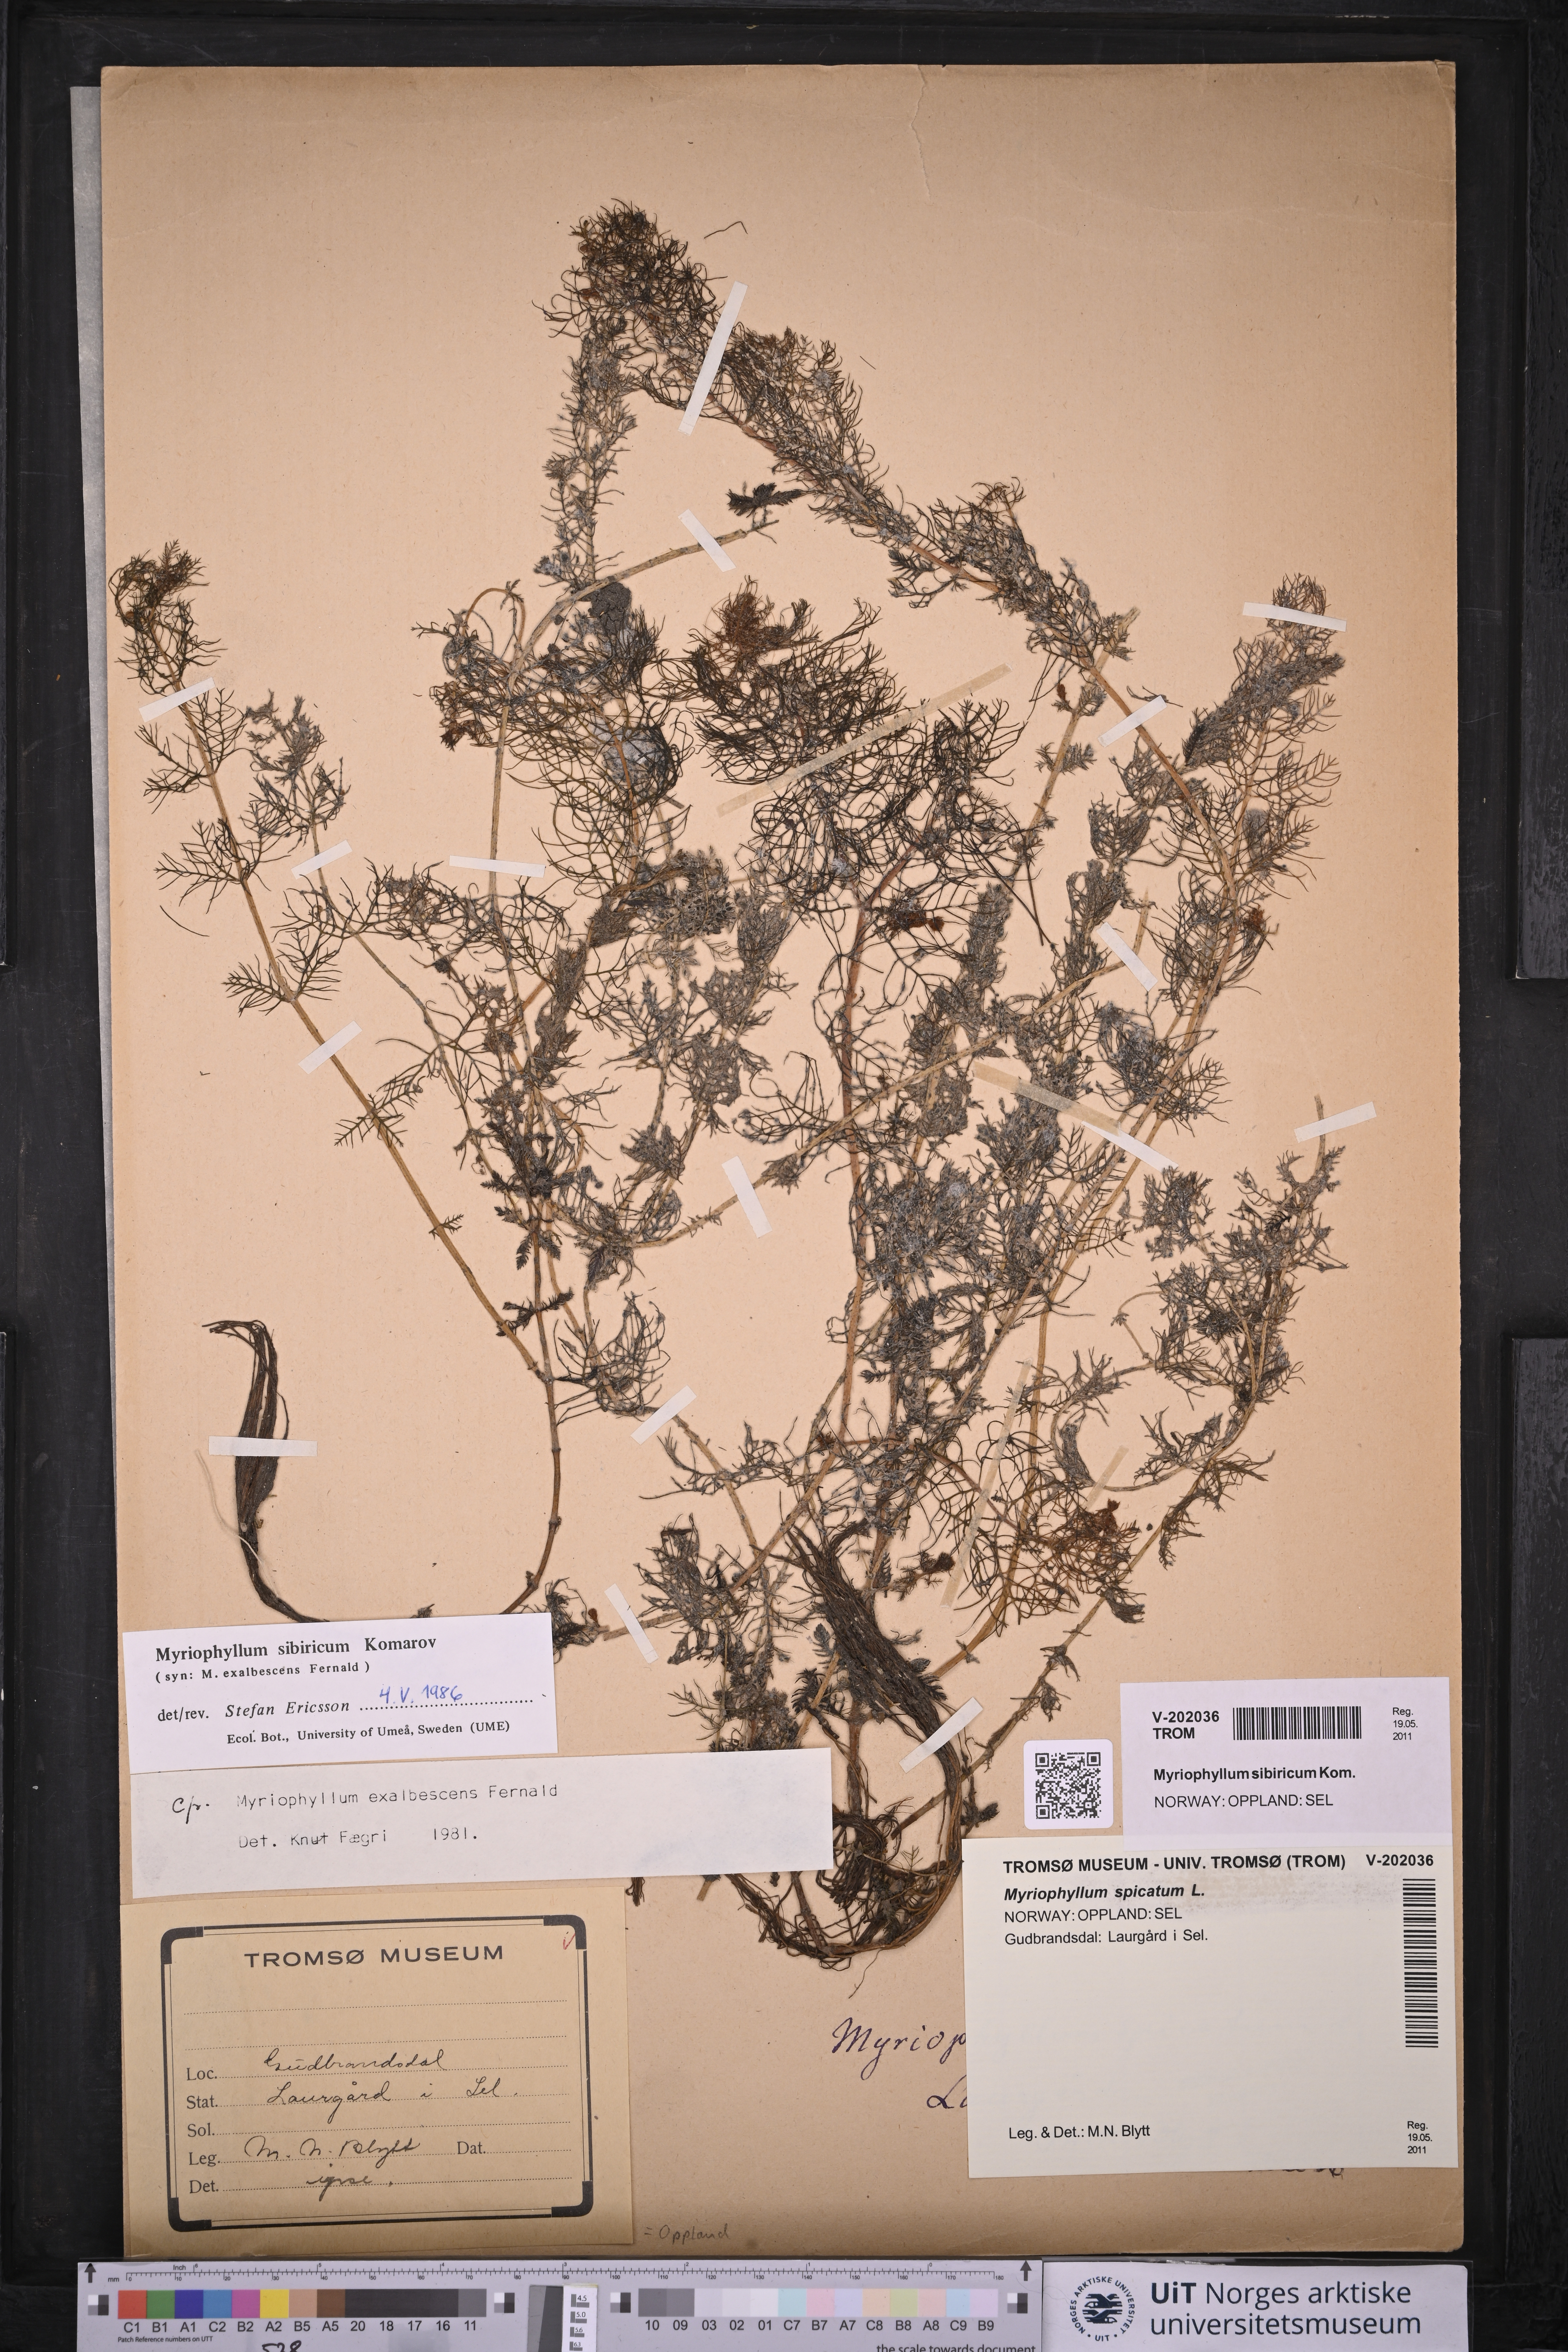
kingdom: Plantae
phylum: Tracheophyta
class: Magnoliopsida
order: Saxifragales
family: Haloragaceae
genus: Myriophyllum
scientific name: Myriophyllum sibiricum
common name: Siberian water-milfoil
